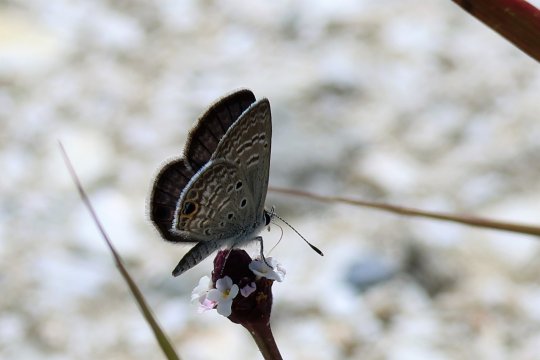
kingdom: Animalia
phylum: Arthropoda
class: Insecta
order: Lepidoptera
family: Lycaenidae
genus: Hemiargus
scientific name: Hemiargus ceraunus
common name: Ceraunus Blue
